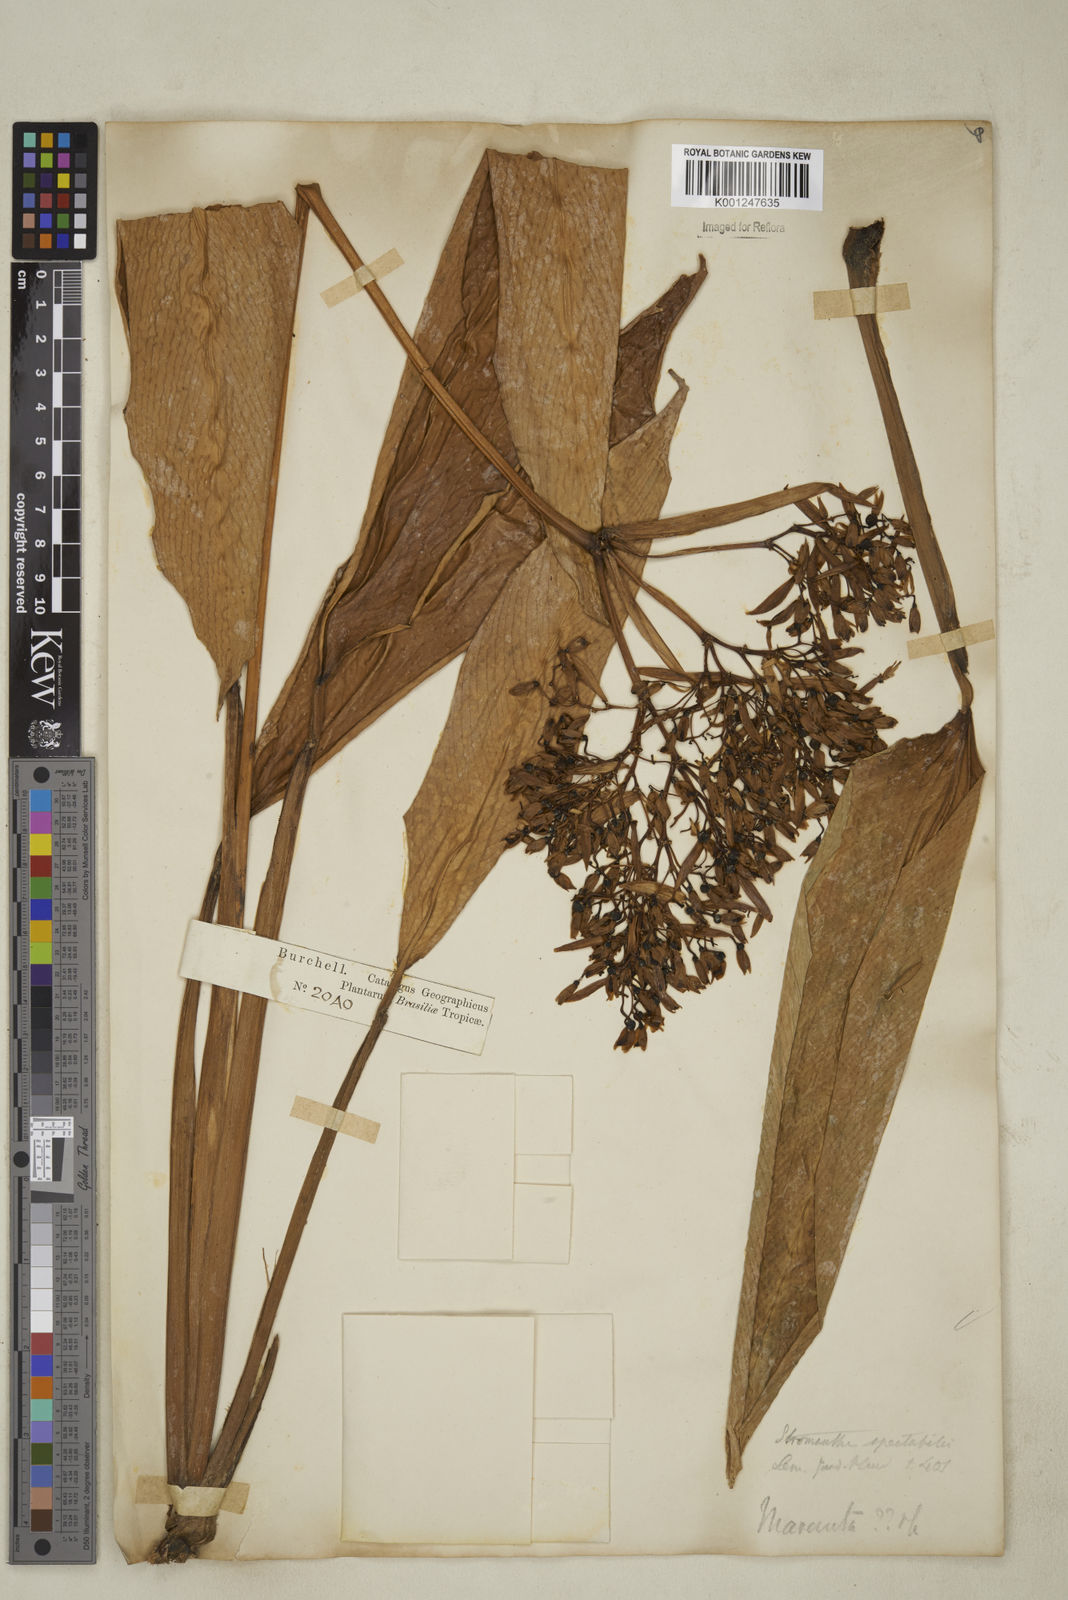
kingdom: Plantae
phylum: Tracheophyta
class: Liliopsida
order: Zingiberales
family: Marantaceae
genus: Stromanthe
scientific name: Stromanthe thalia
